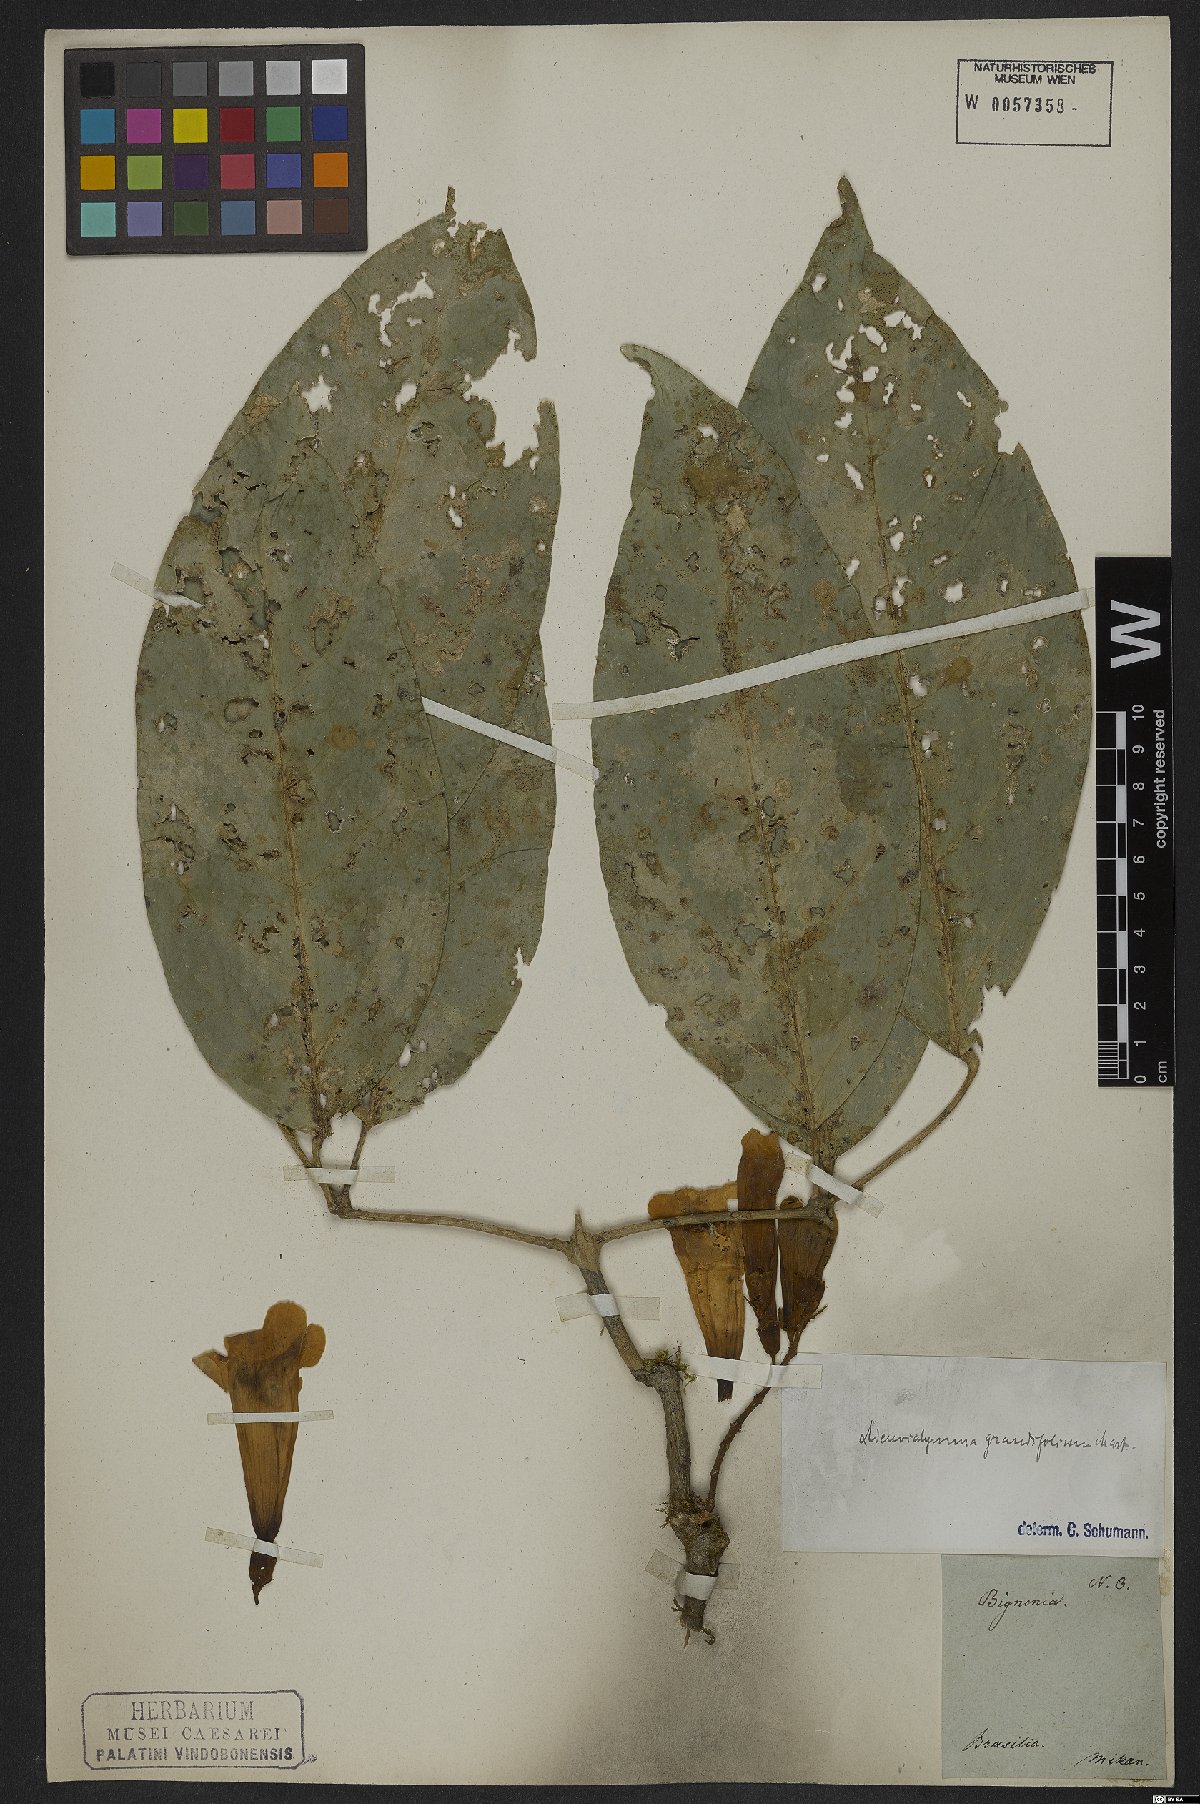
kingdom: Plantae
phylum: Tracheophyta
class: Magnoliopsida
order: Lamiales
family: Bignoniaceae
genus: Adenocalymma
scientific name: Adenocalymma ternatum
